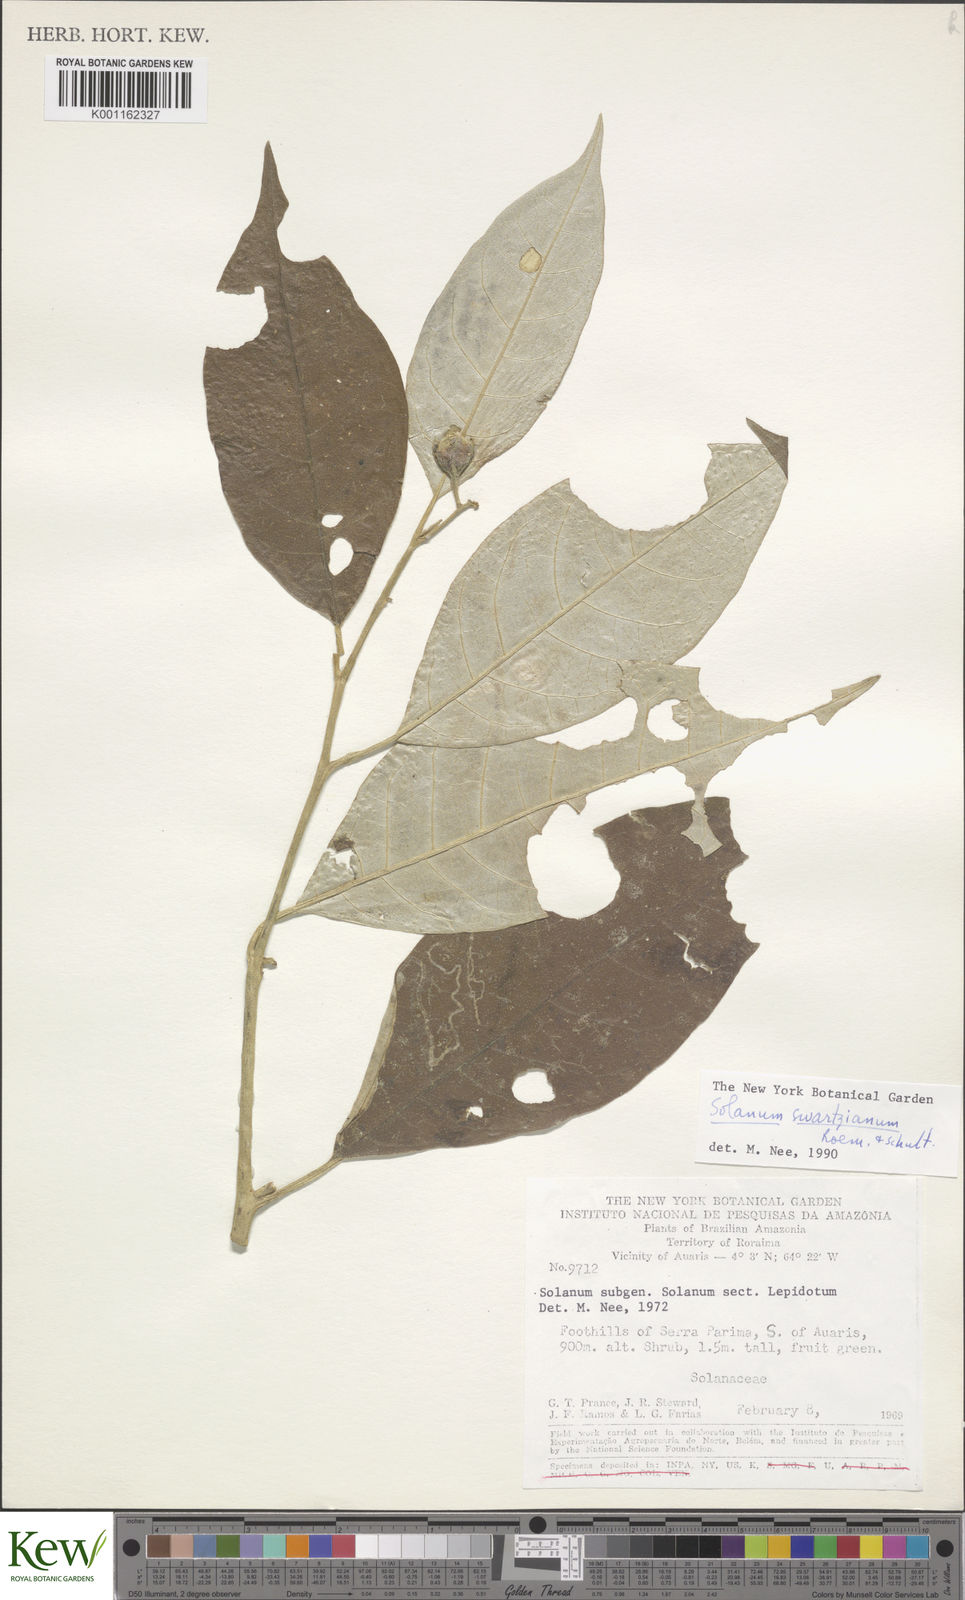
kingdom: Plantae
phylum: Tracheophyta
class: Magnoliopsida
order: Solanales
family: Solanaceae
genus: Solanum
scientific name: Solanum swartzianum
